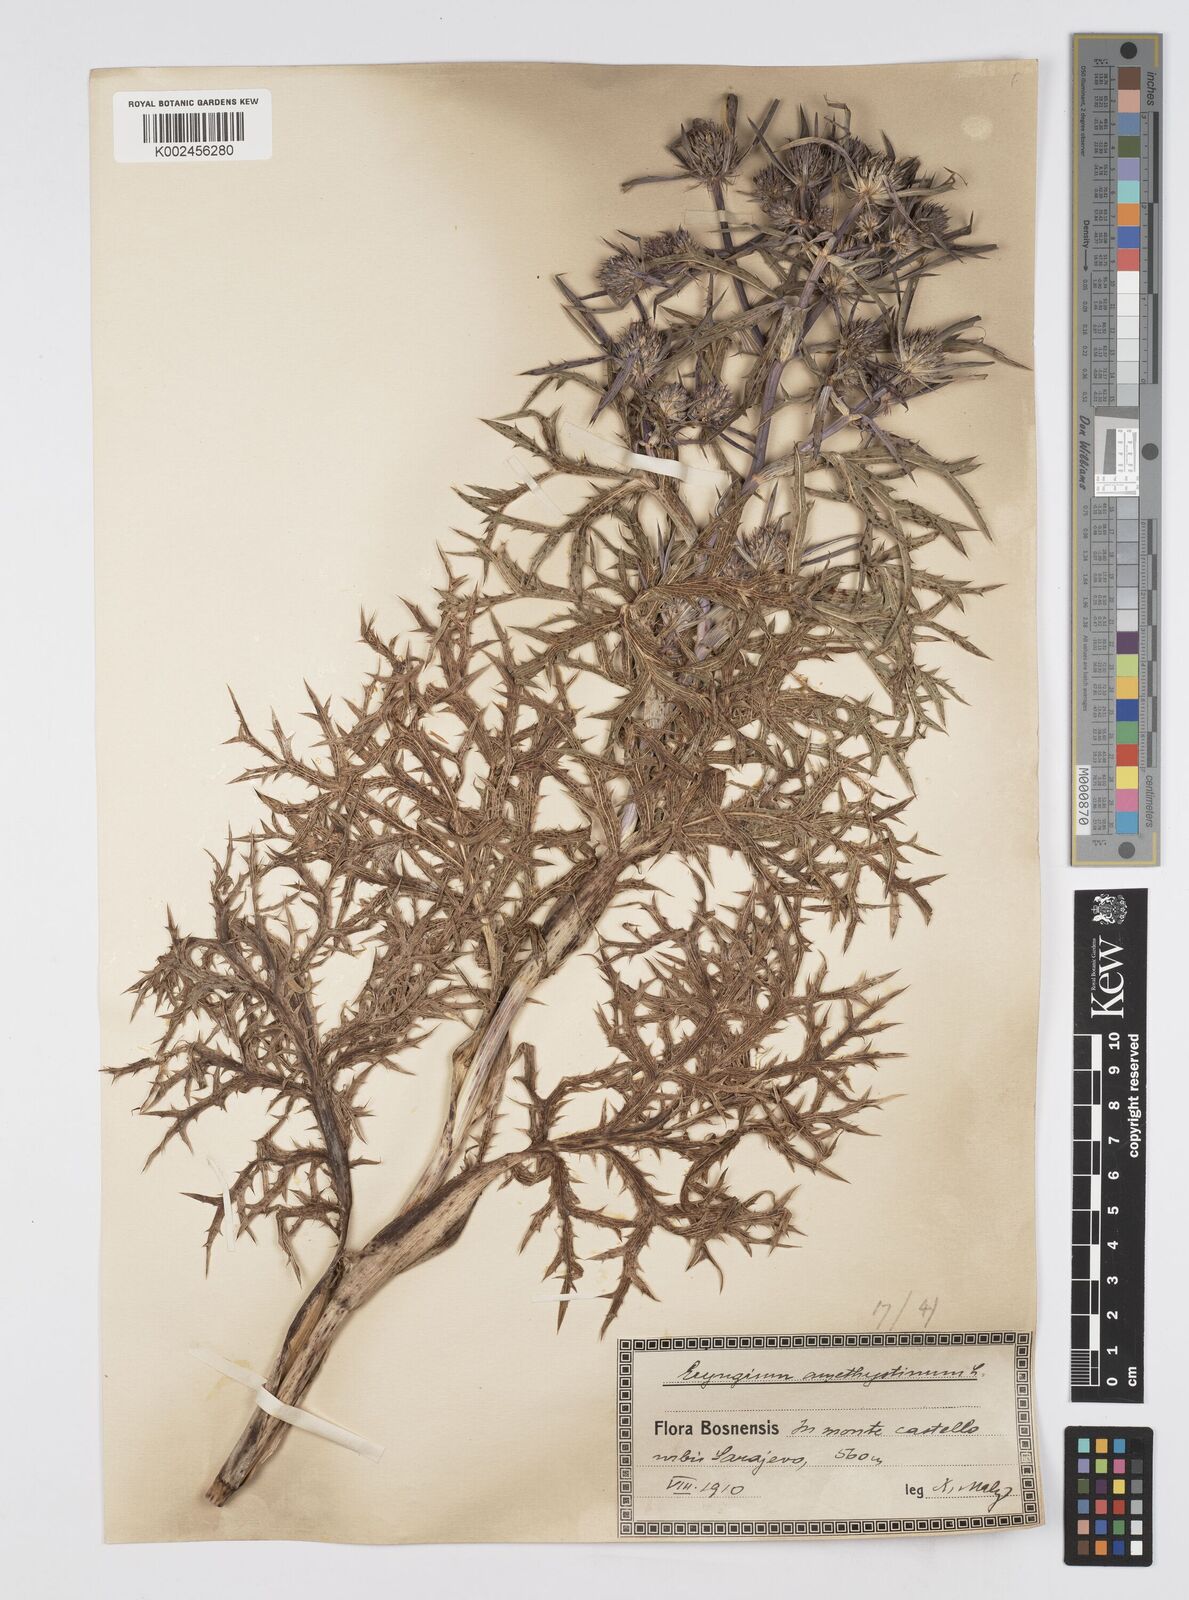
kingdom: Plantae
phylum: Tracheophyta
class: Magnoliopsida
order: Apiales
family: Apiaceae
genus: Eryngium
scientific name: Eryngium amethystinum
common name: Amethyst eryngo
